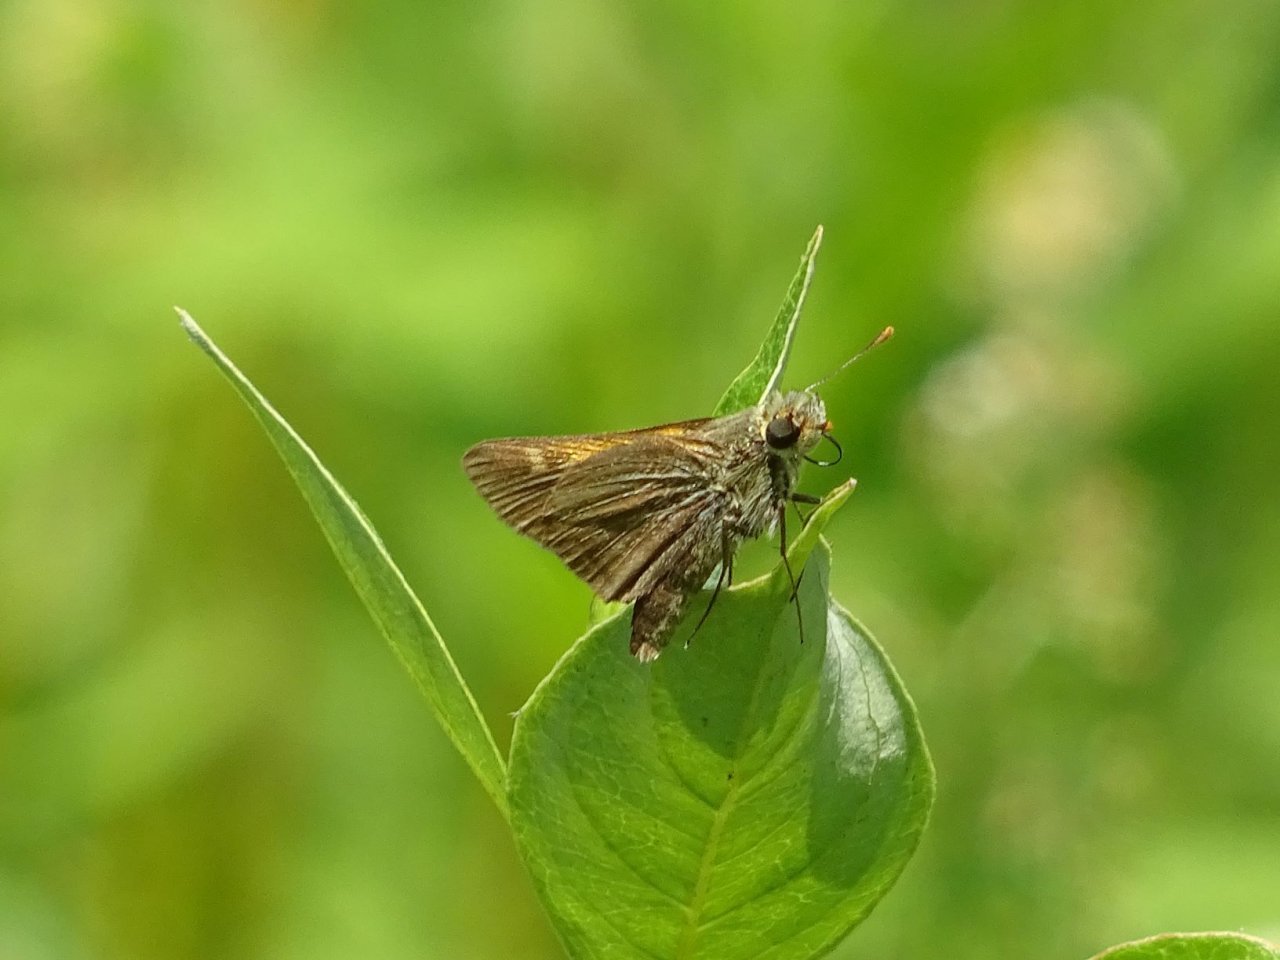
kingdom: Animalia
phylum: Arthropoda
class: Insecta
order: Lepidoptera
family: Hesperiidae
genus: Polites
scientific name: Polites themistocles
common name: Tawny-edged Skipper
